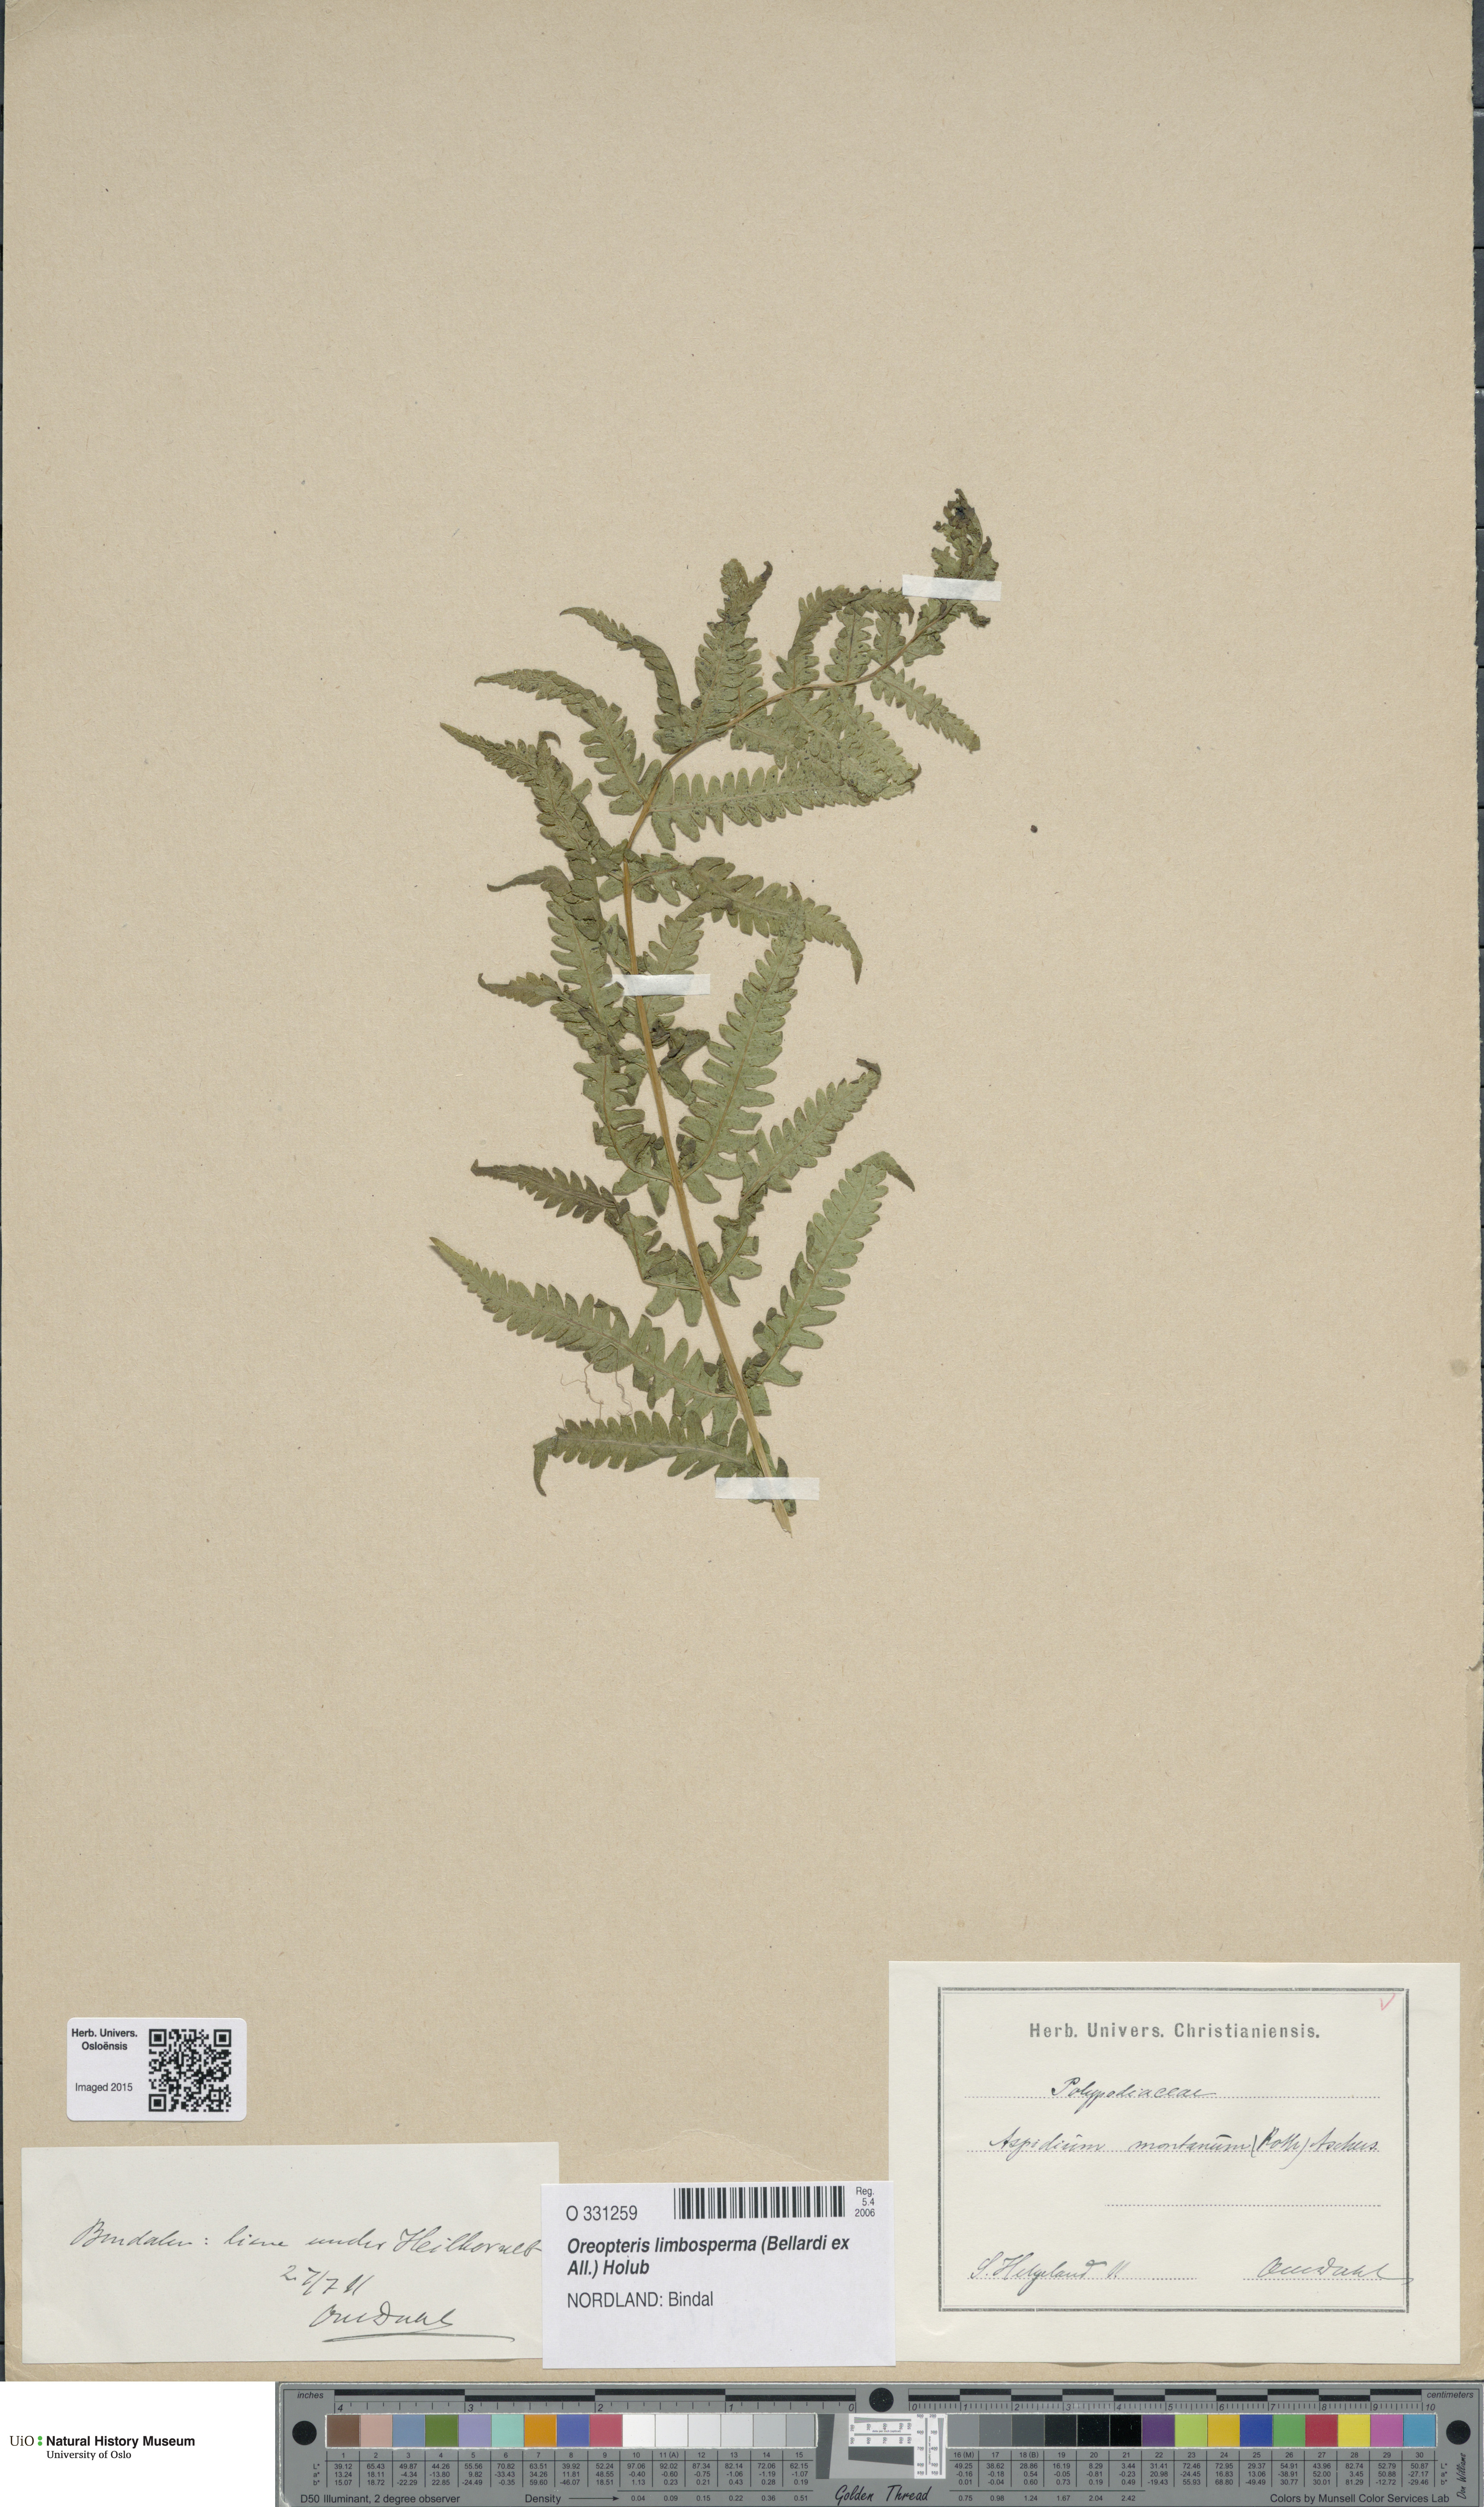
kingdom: Plantae
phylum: Tracheophyta
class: Polypodiopsida
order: Polypodiales
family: Thelypteridaceae
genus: Oreopteris
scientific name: Oreopteris limbosperma
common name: Lemon-scented fern
